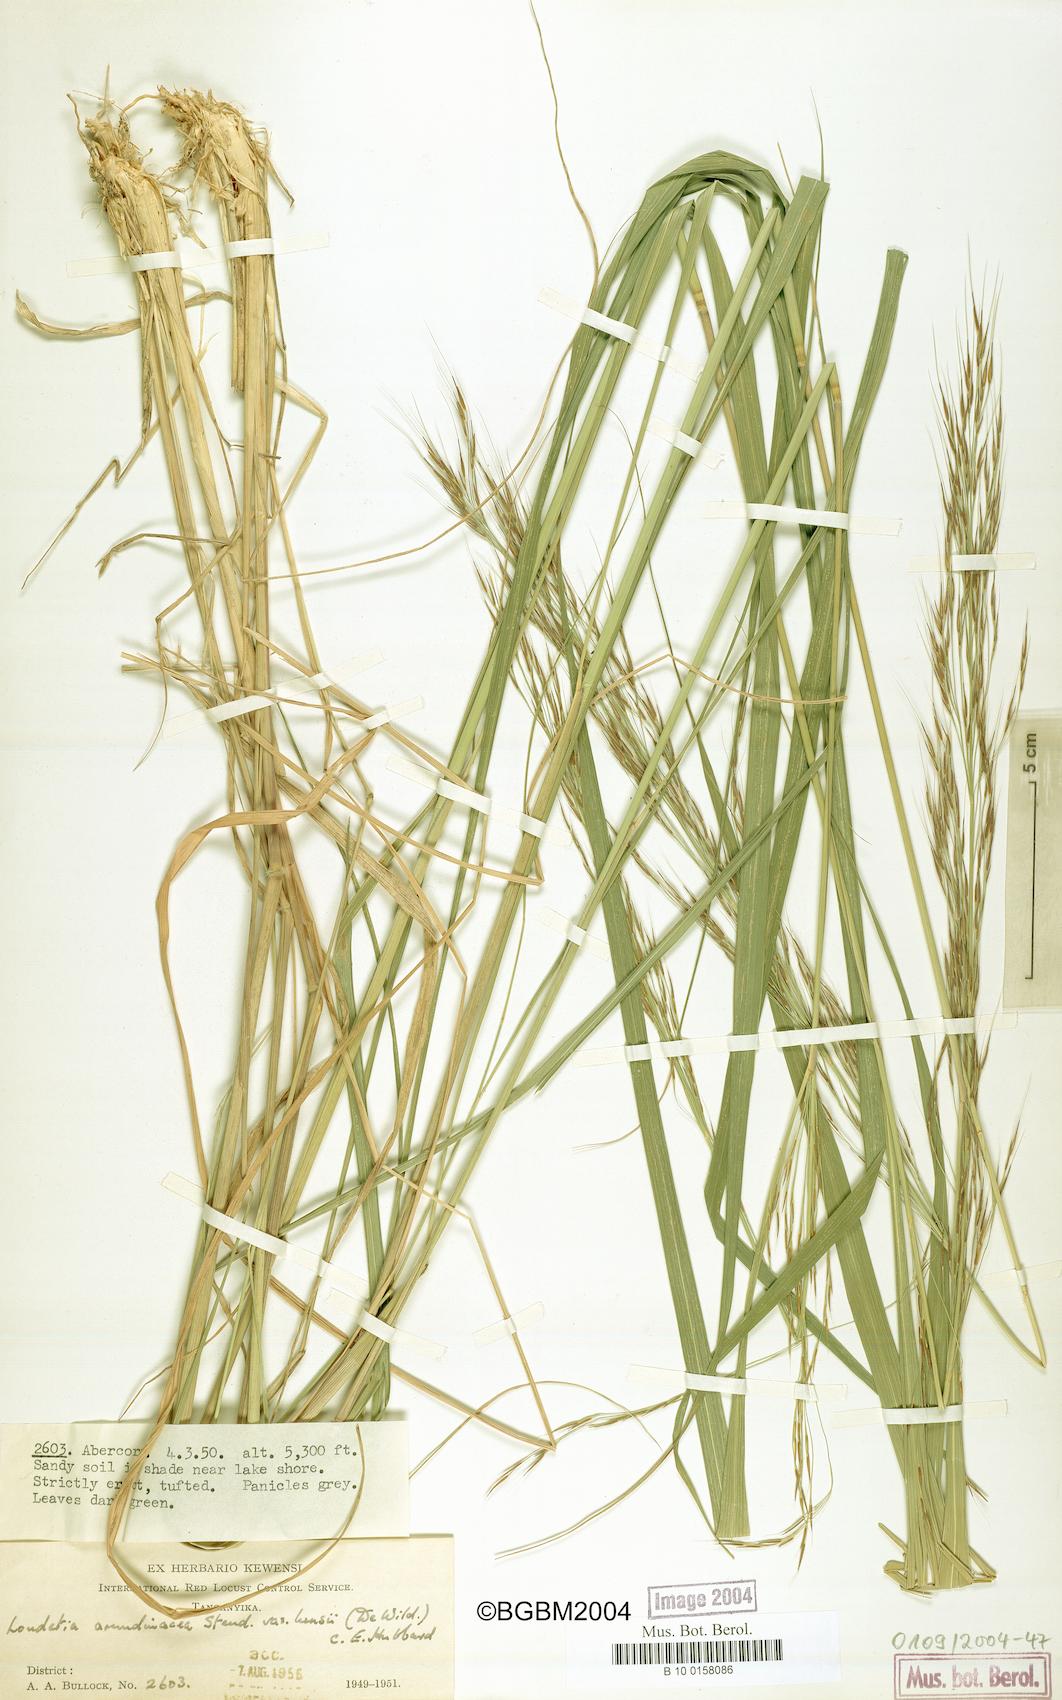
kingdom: Plantae
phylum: Tracheophyta
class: Liliopsida
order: Poales
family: Poaceae
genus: Loudetia
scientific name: Loudetia arundinacea
